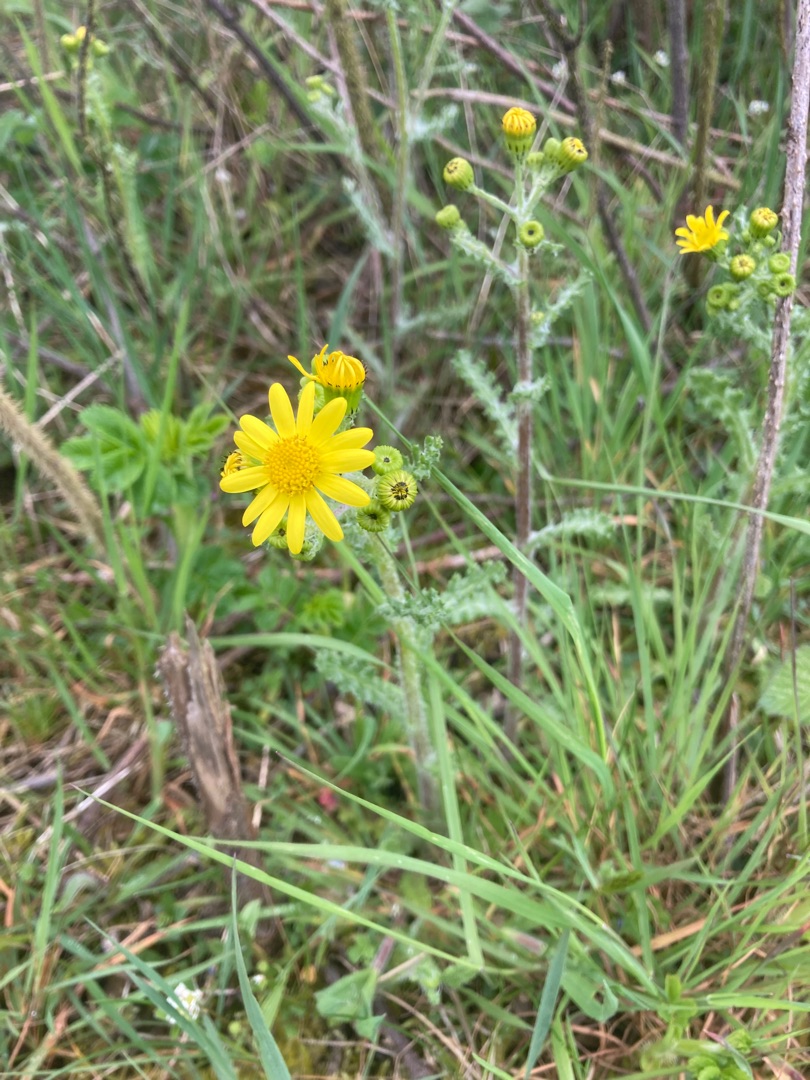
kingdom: Plantae
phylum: Tracheophyta
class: Magnoliopsida
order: Asterales
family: Asteraceae
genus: Senecio
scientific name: Senecio leucanthemifolius
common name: Vår-brandbæger
